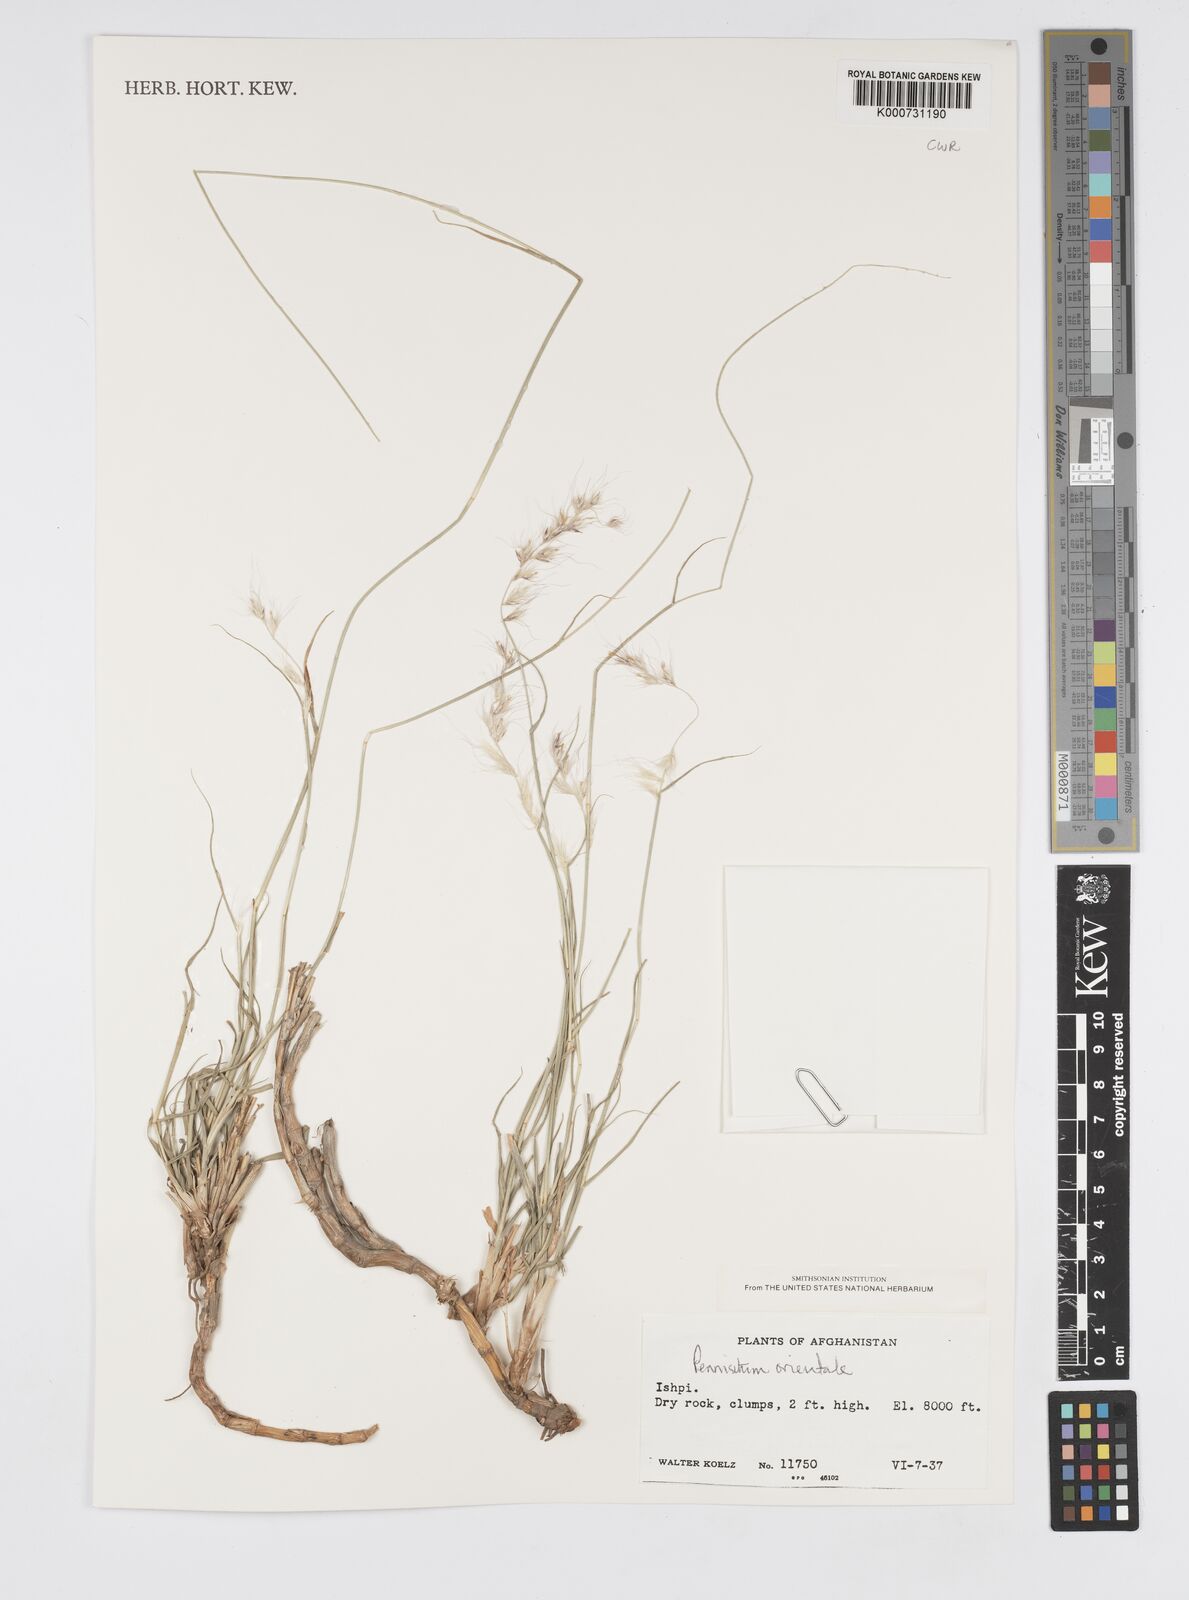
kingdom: Plantae
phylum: Tracheophyta
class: Liliopsida
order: Poales
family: Poaceae
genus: Cenchrus
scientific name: Cenchrus orientalis
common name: Oriental fountain grass
